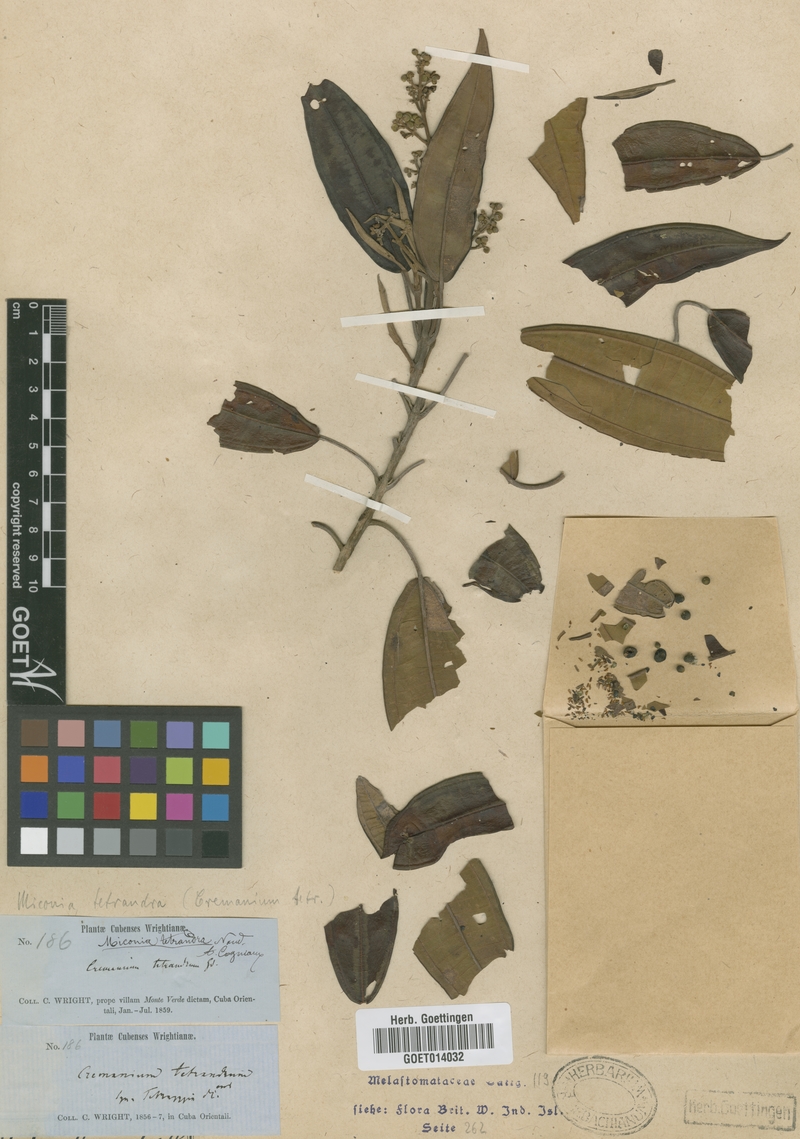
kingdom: Plantae
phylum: Tracheophyta
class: Magnoliopsida
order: Myrtales
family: Melastomataceae
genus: Miconia
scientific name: Miconia tetrandra
